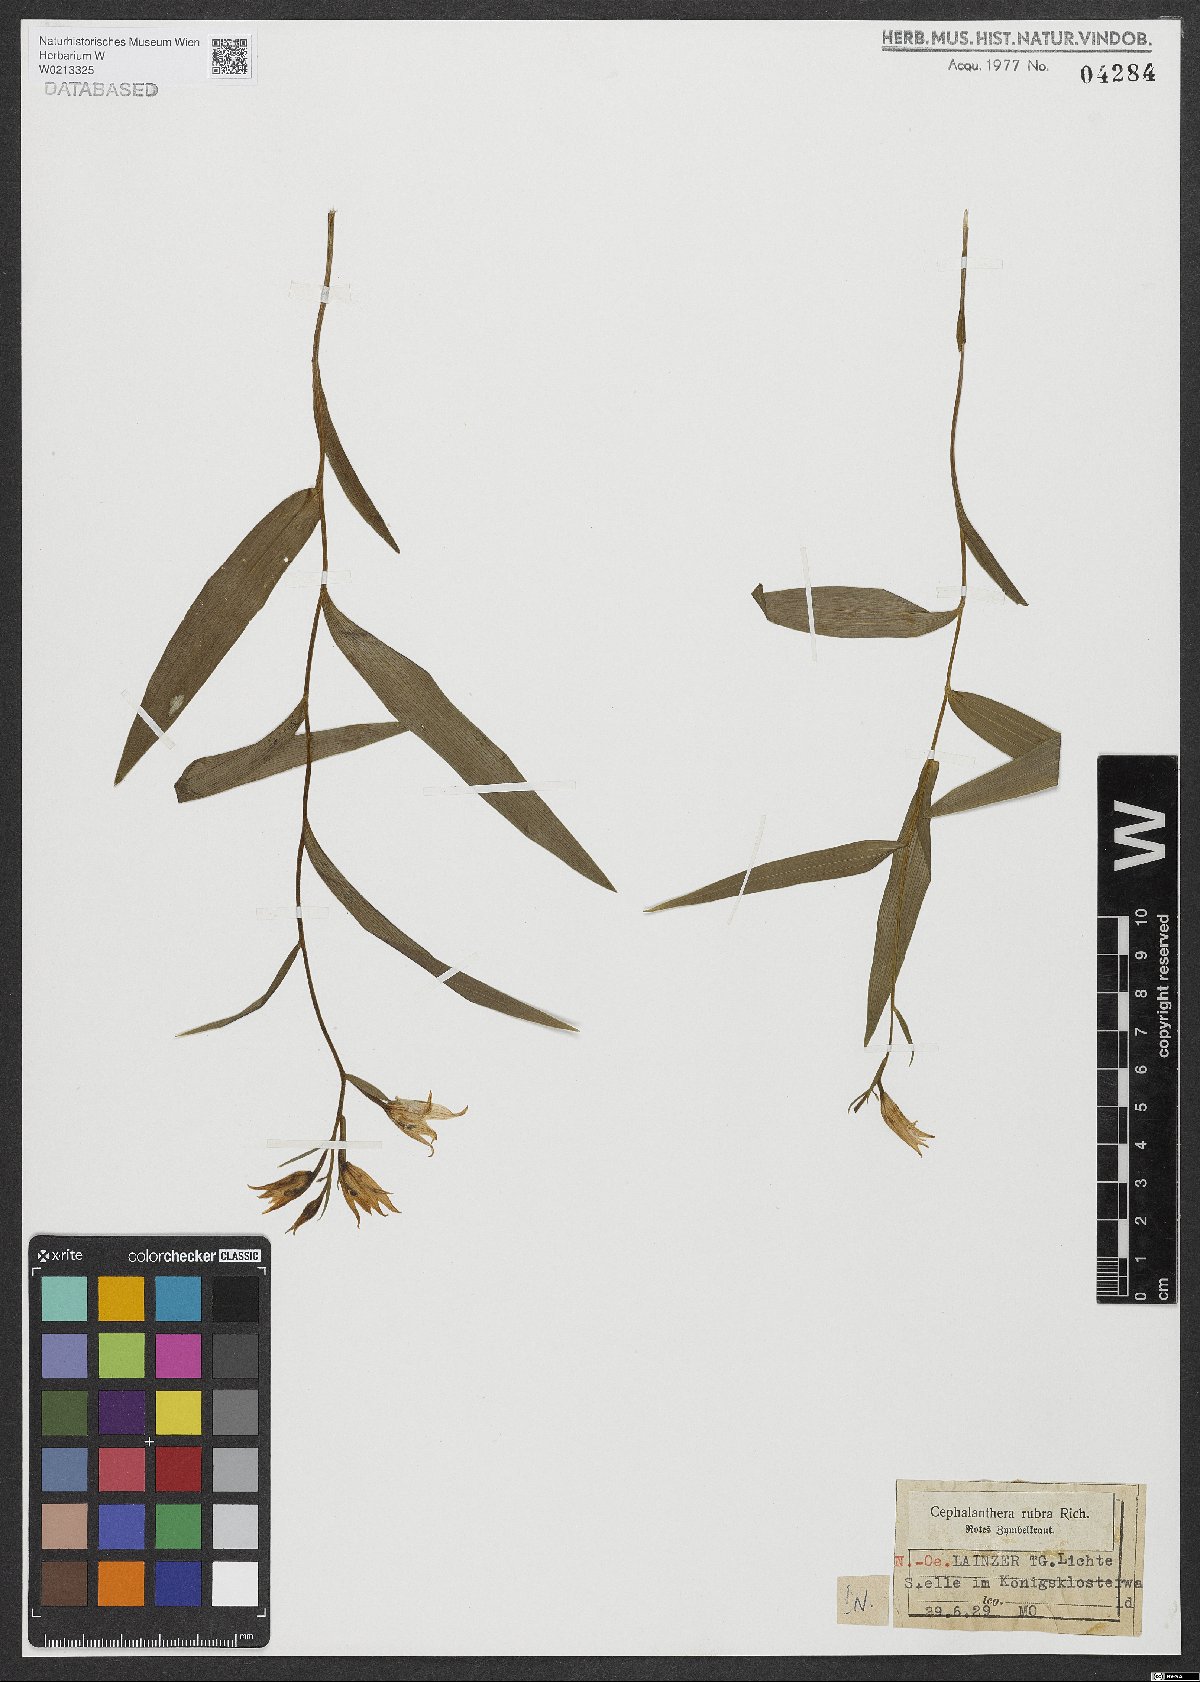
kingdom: Plantae
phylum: Tracheophyta
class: Liliopsida
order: Asparagales
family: Orchidaceae
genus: Cephalanthera
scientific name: Cephalanthera rubra
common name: Red helleborine
